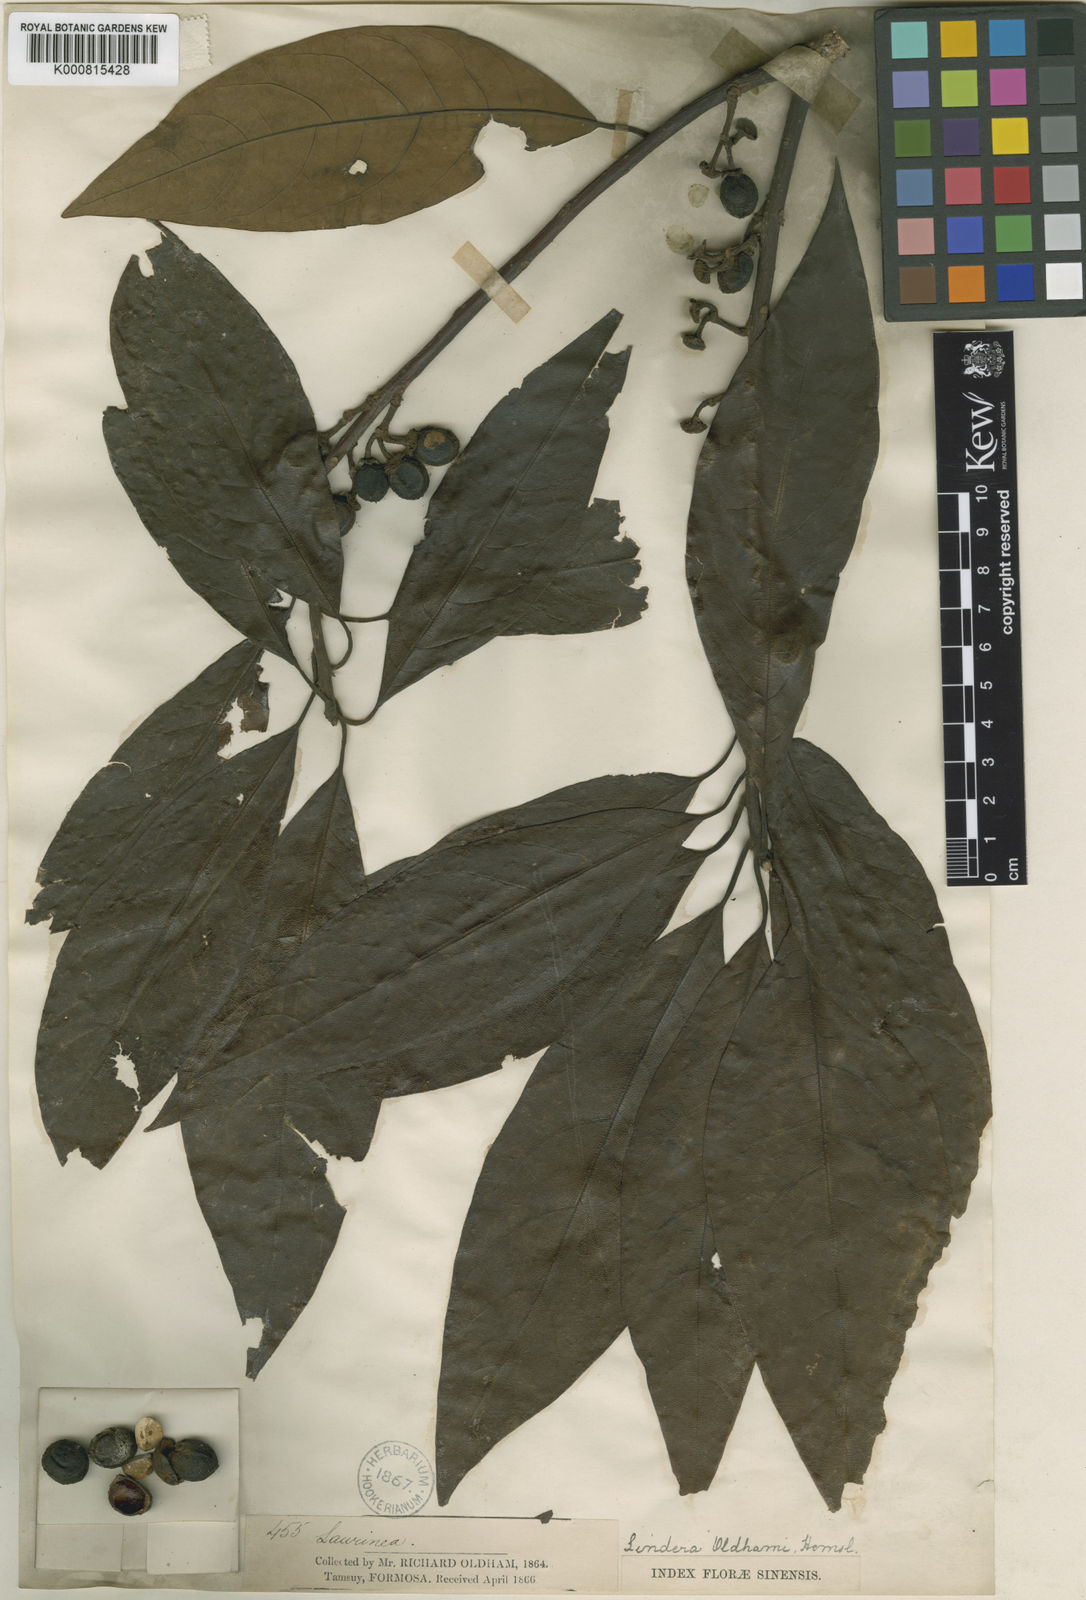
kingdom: Plantae
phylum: Tracheophyta
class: Magnoliopsida
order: Laurales
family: Lauraceae
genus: Lindera
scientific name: Lindera megaphylla
